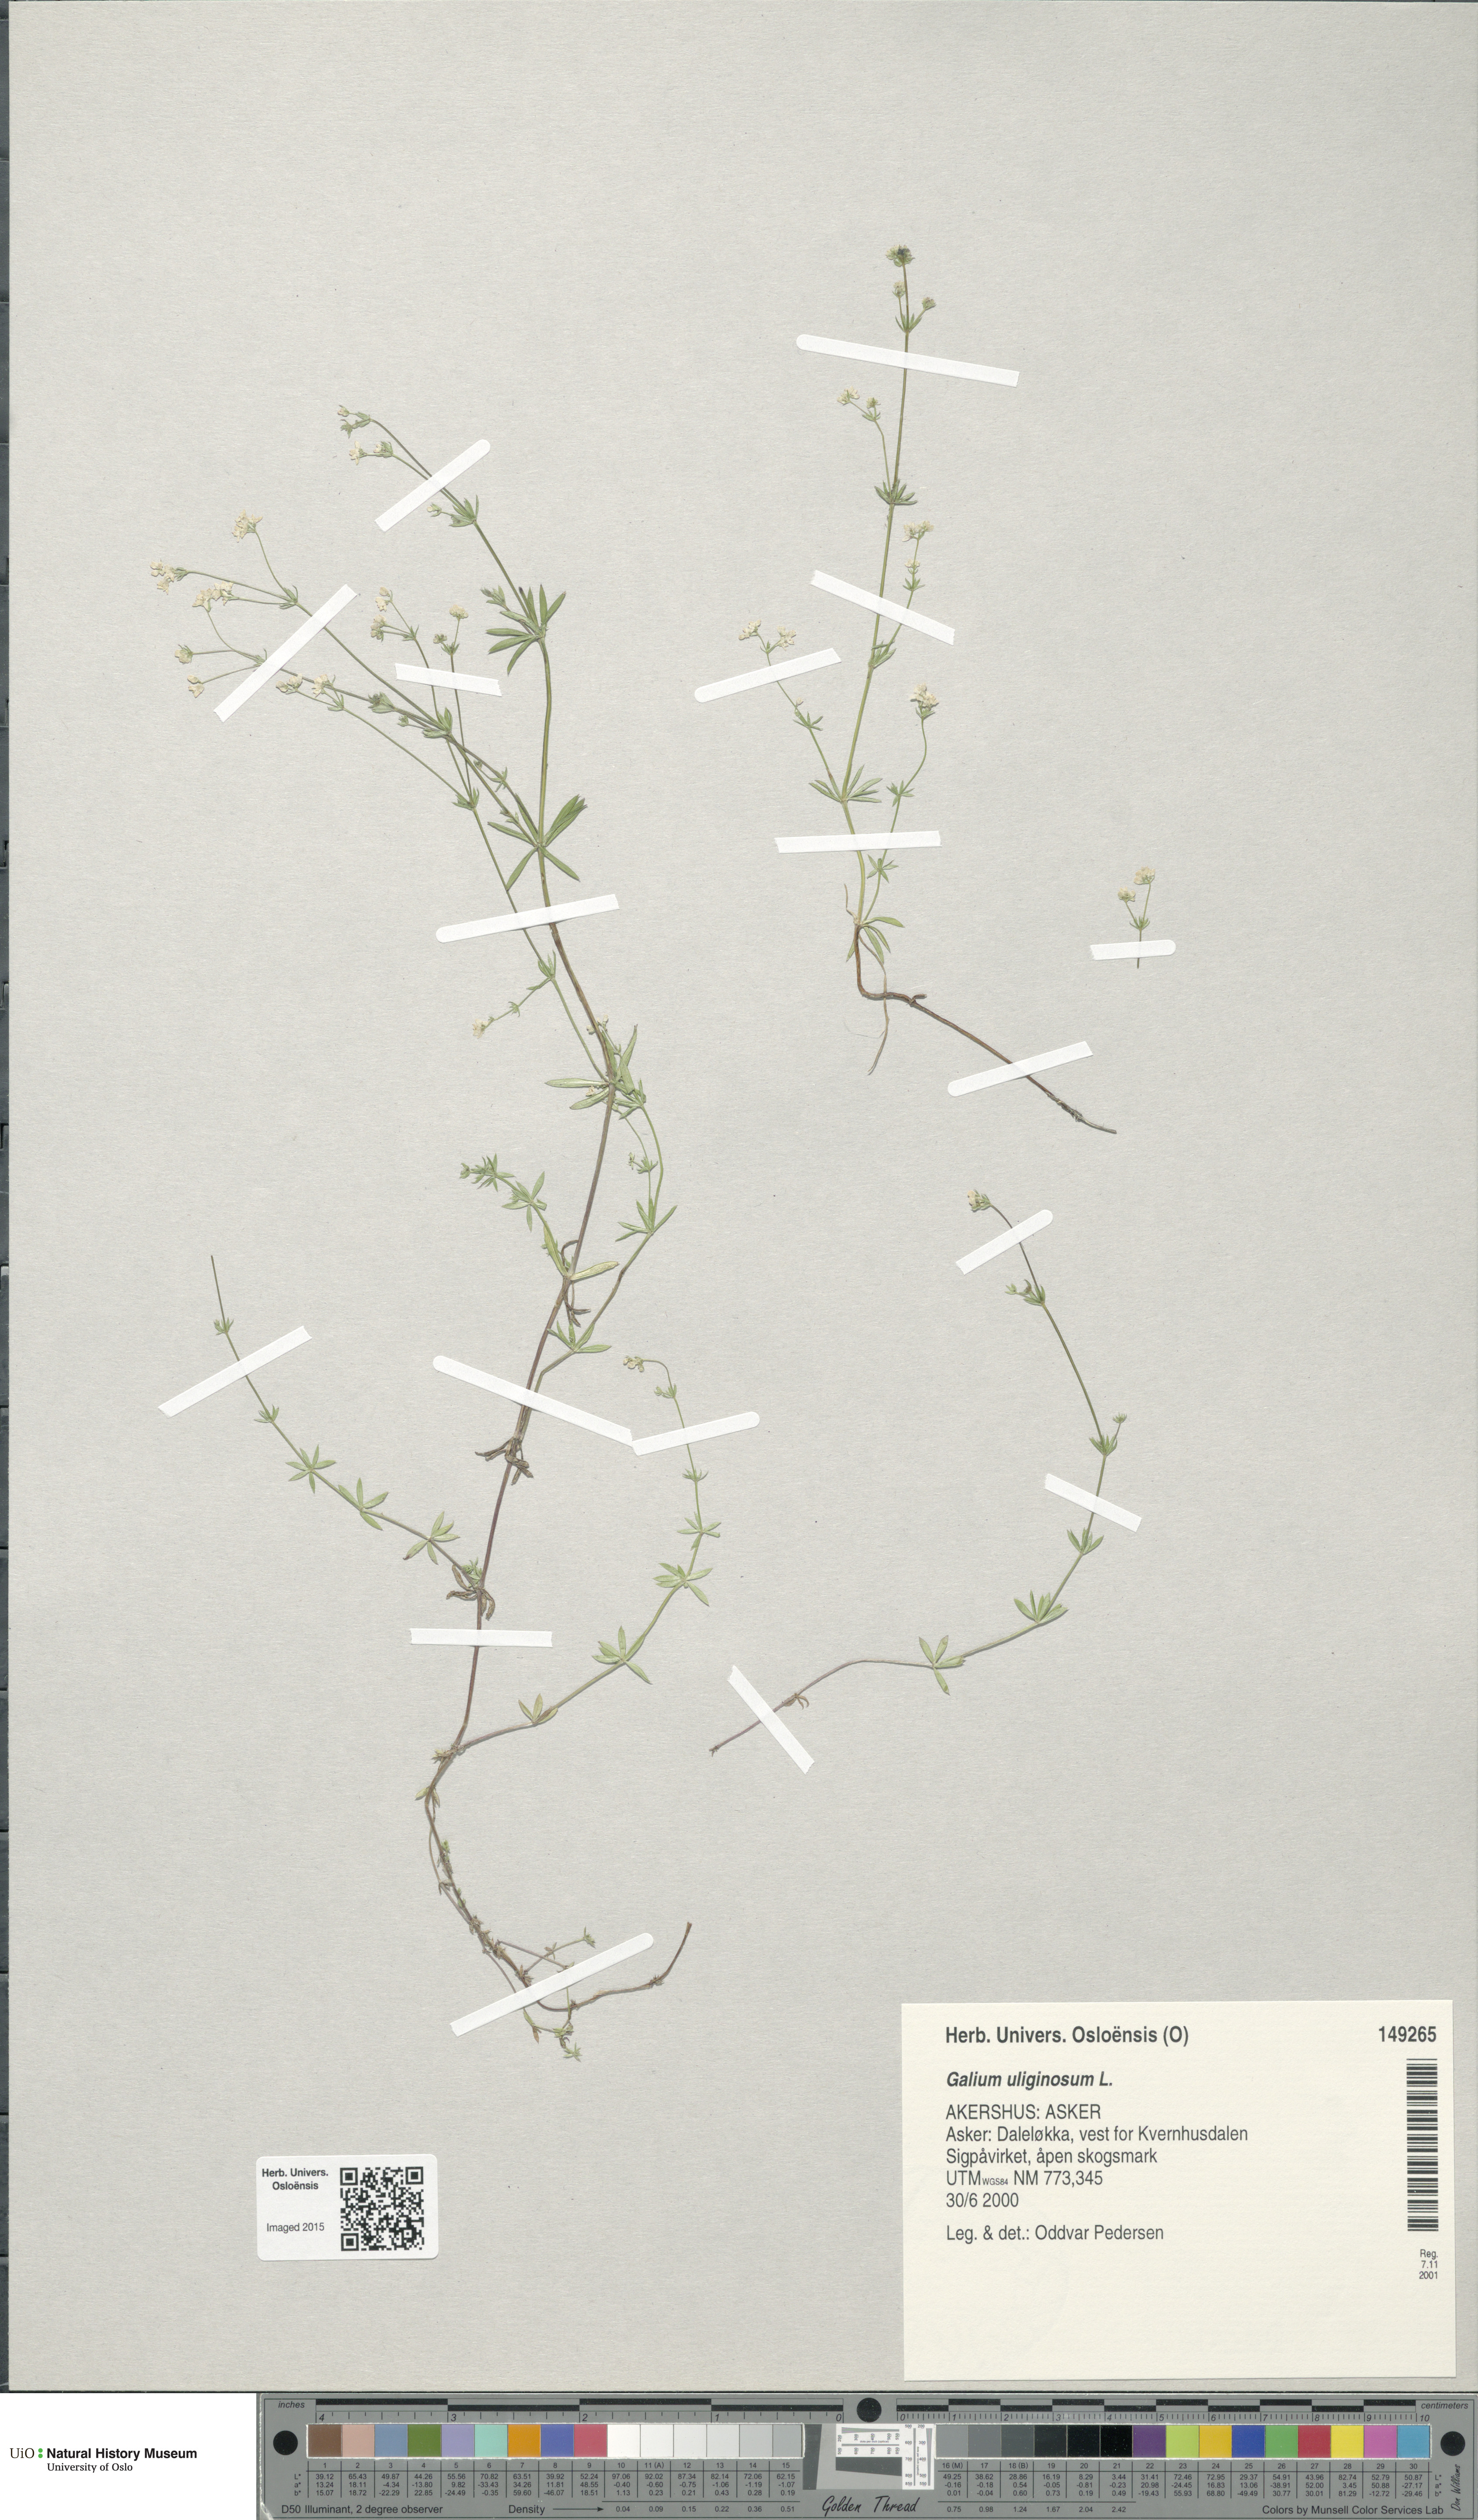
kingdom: Plantae
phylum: Tracheophyta
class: Magnoliopsida
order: Gentianales
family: Rubiaceae
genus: Galium
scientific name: Galium uliginosum
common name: Fen bedstraw
